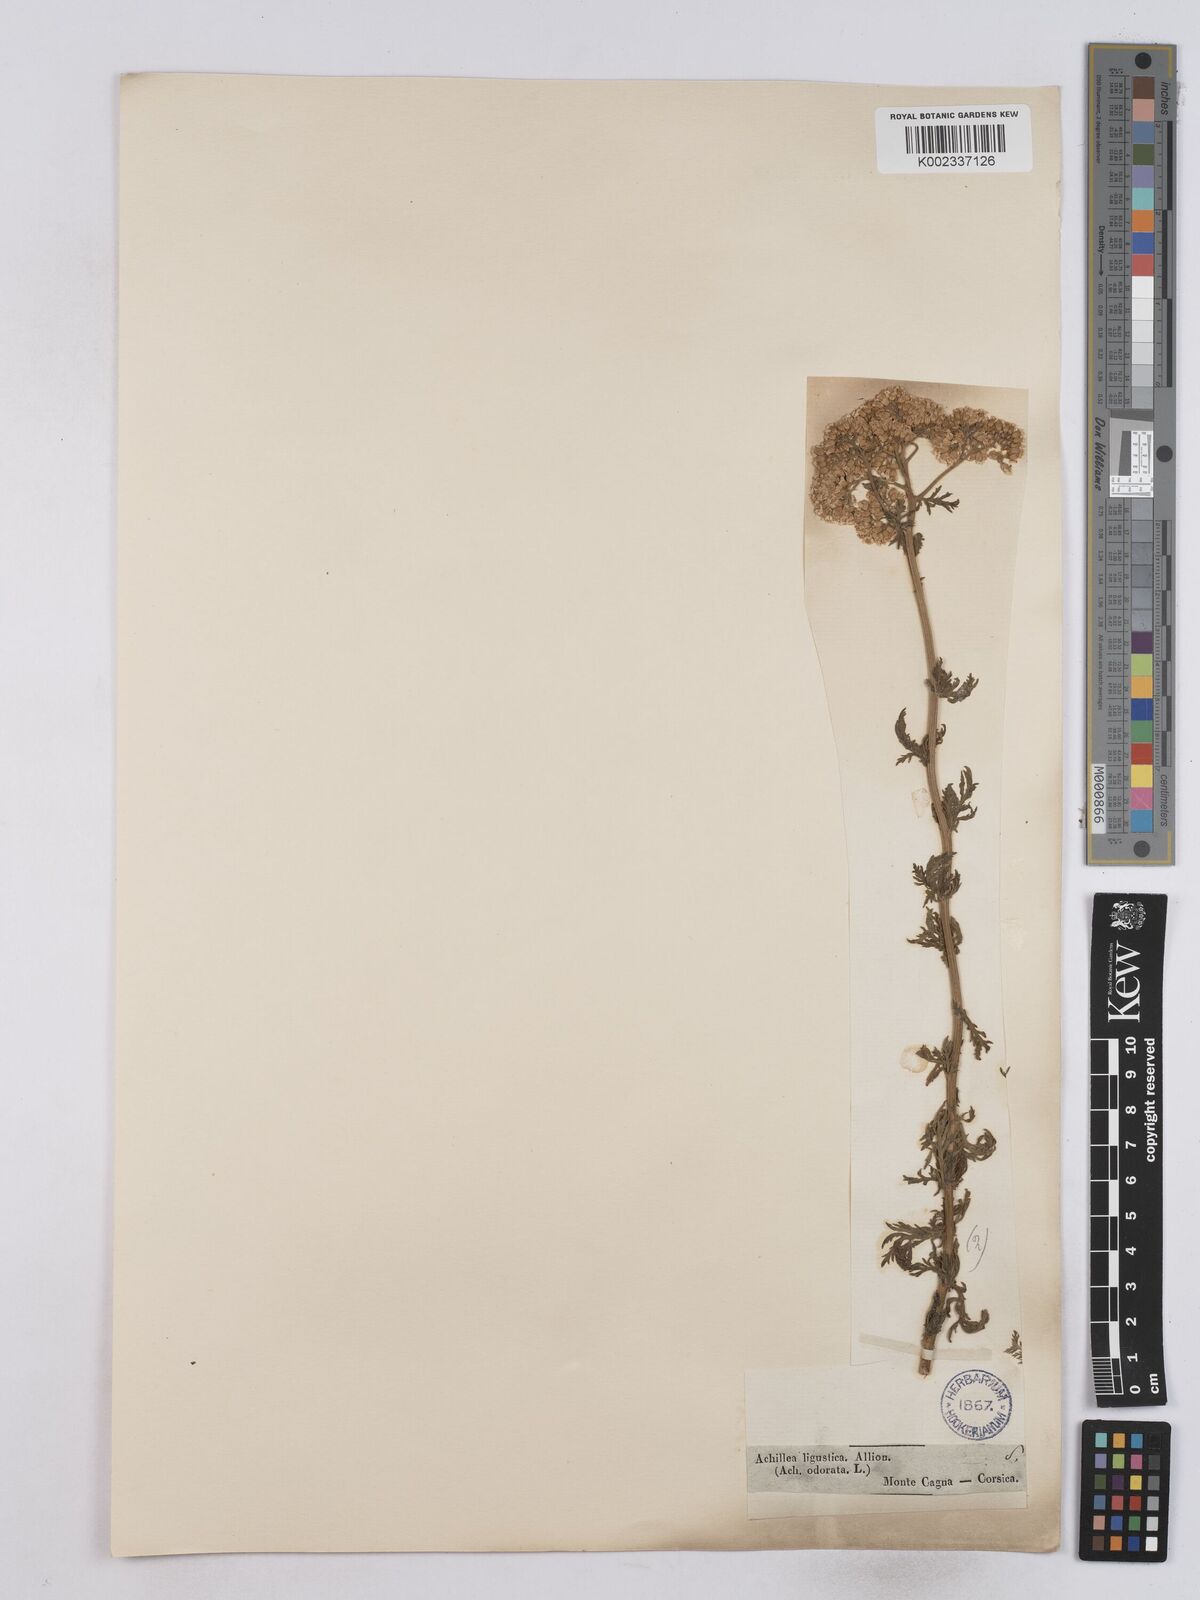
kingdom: Plantae
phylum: Tracheophyta
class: Magnoliopsida
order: Asterales
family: Asteraceae
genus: Achillea
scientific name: Achillea ligustica
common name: Southern yarrow
